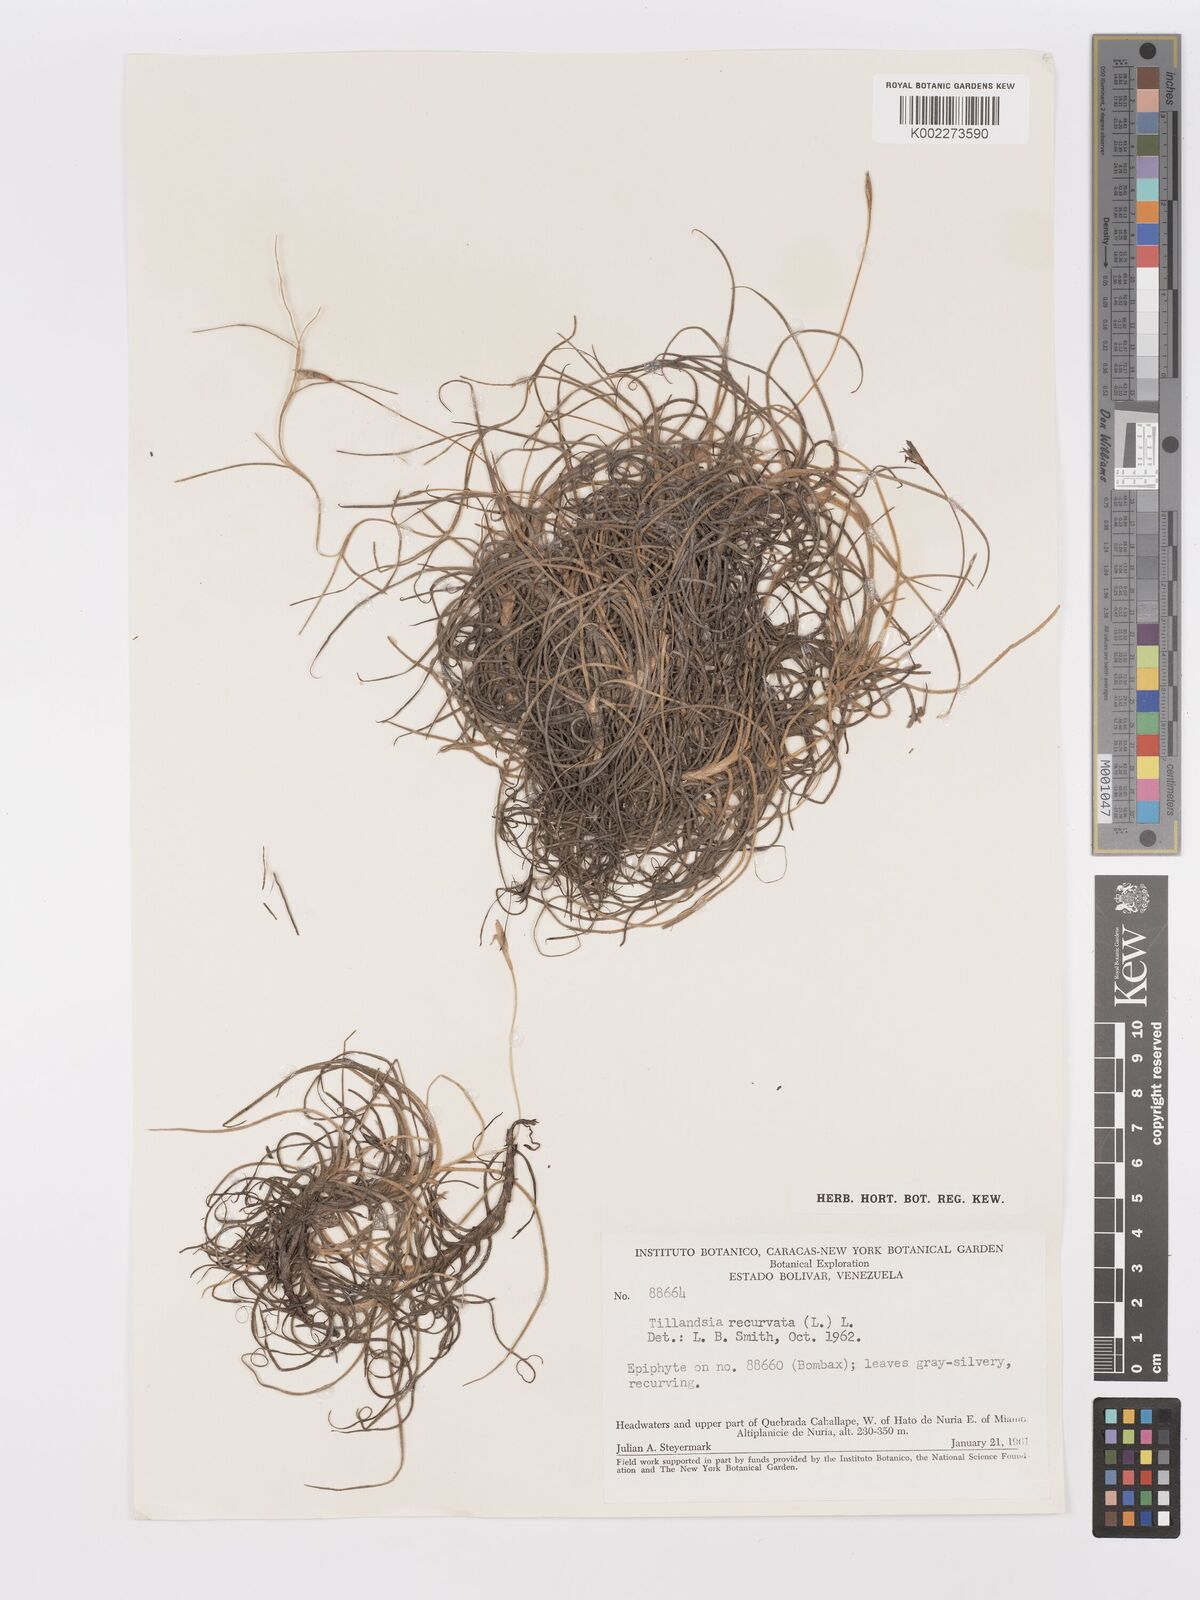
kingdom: Plantae
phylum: Tracheophyta
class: Liliopsida
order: Poales
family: Bromeliaceae
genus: Tillandsia
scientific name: Tillandsia recurvata
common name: Small ballmoss
